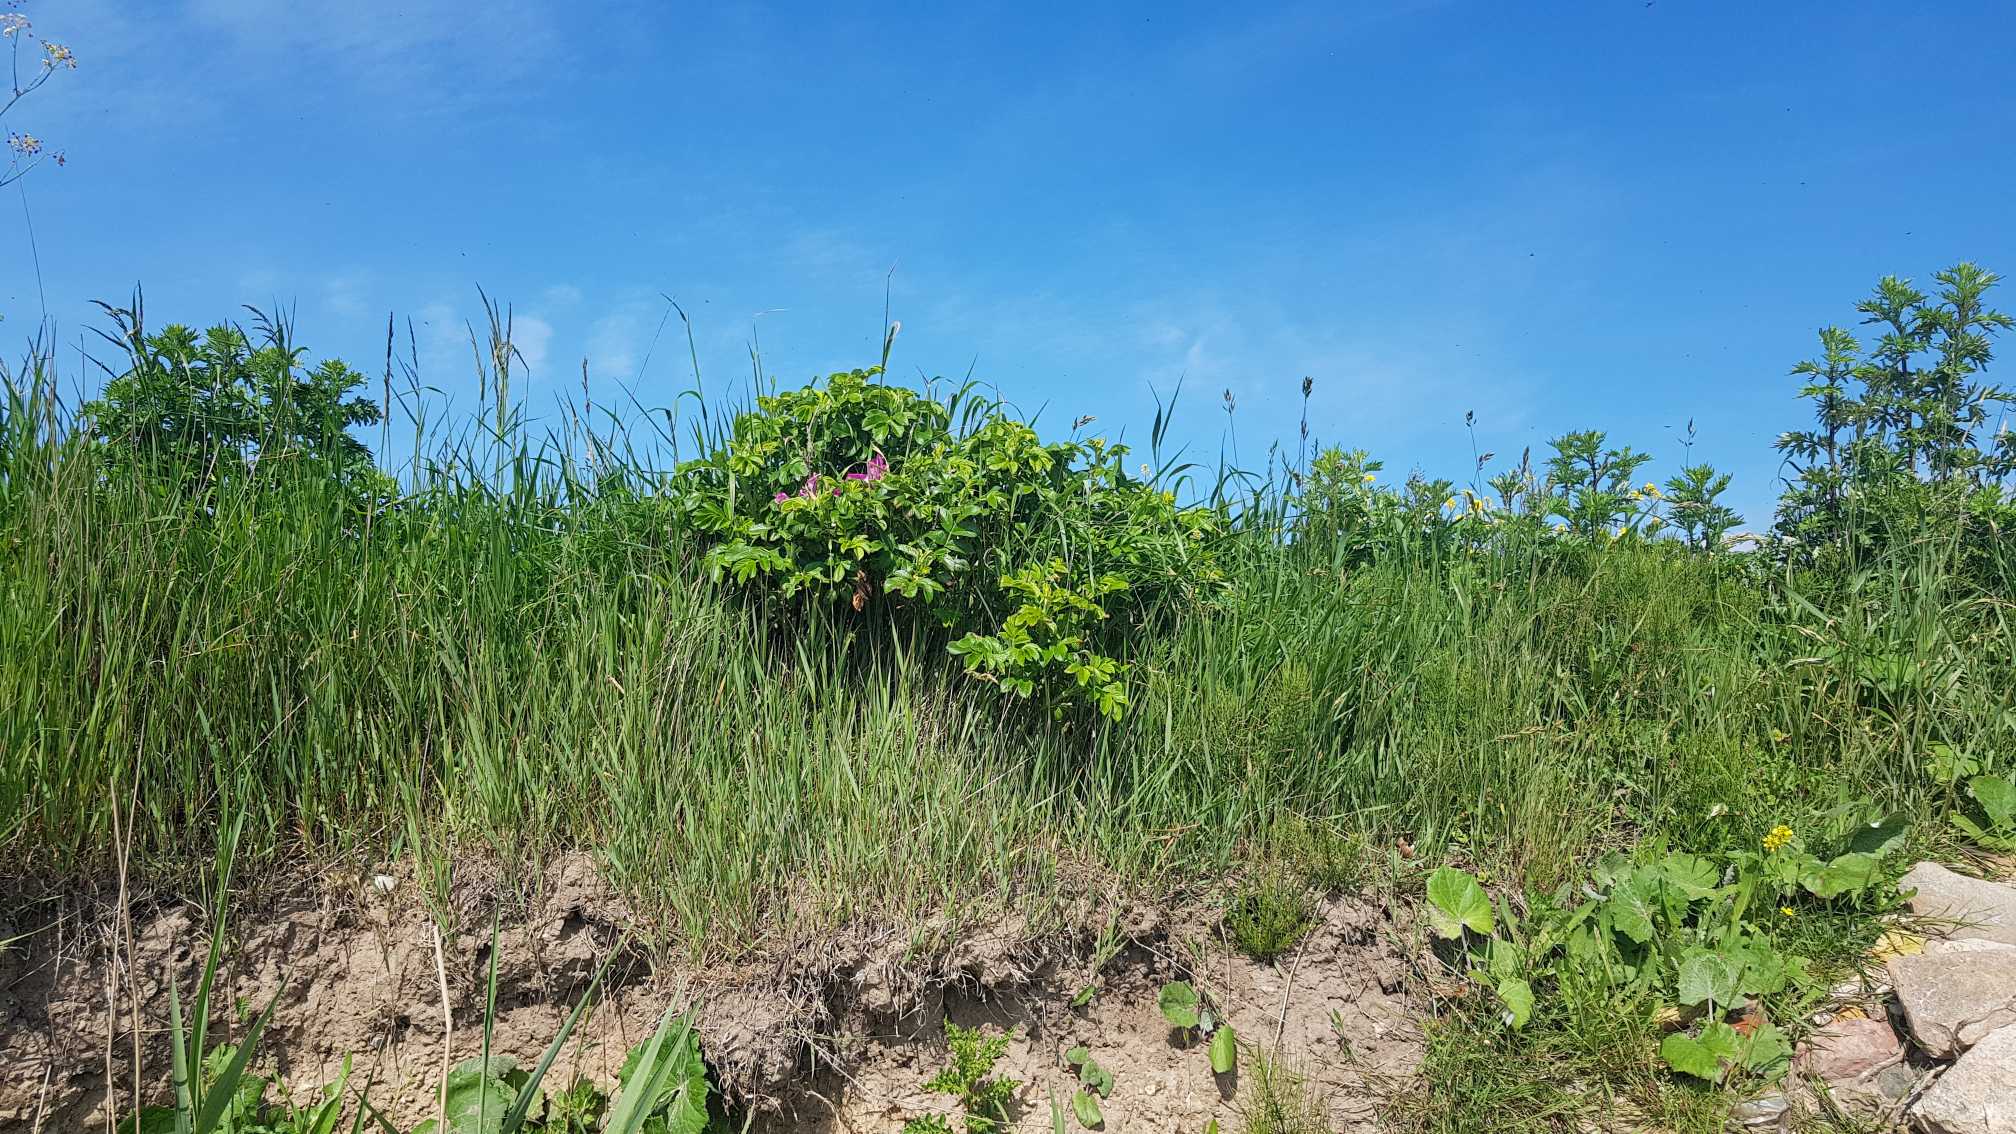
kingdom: Plantae
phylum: Tracheophyta
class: Magnoliopsida
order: Rosales
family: Rosaceae
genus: Rosa
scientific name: Rosa rugosa
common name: Rynket rose
